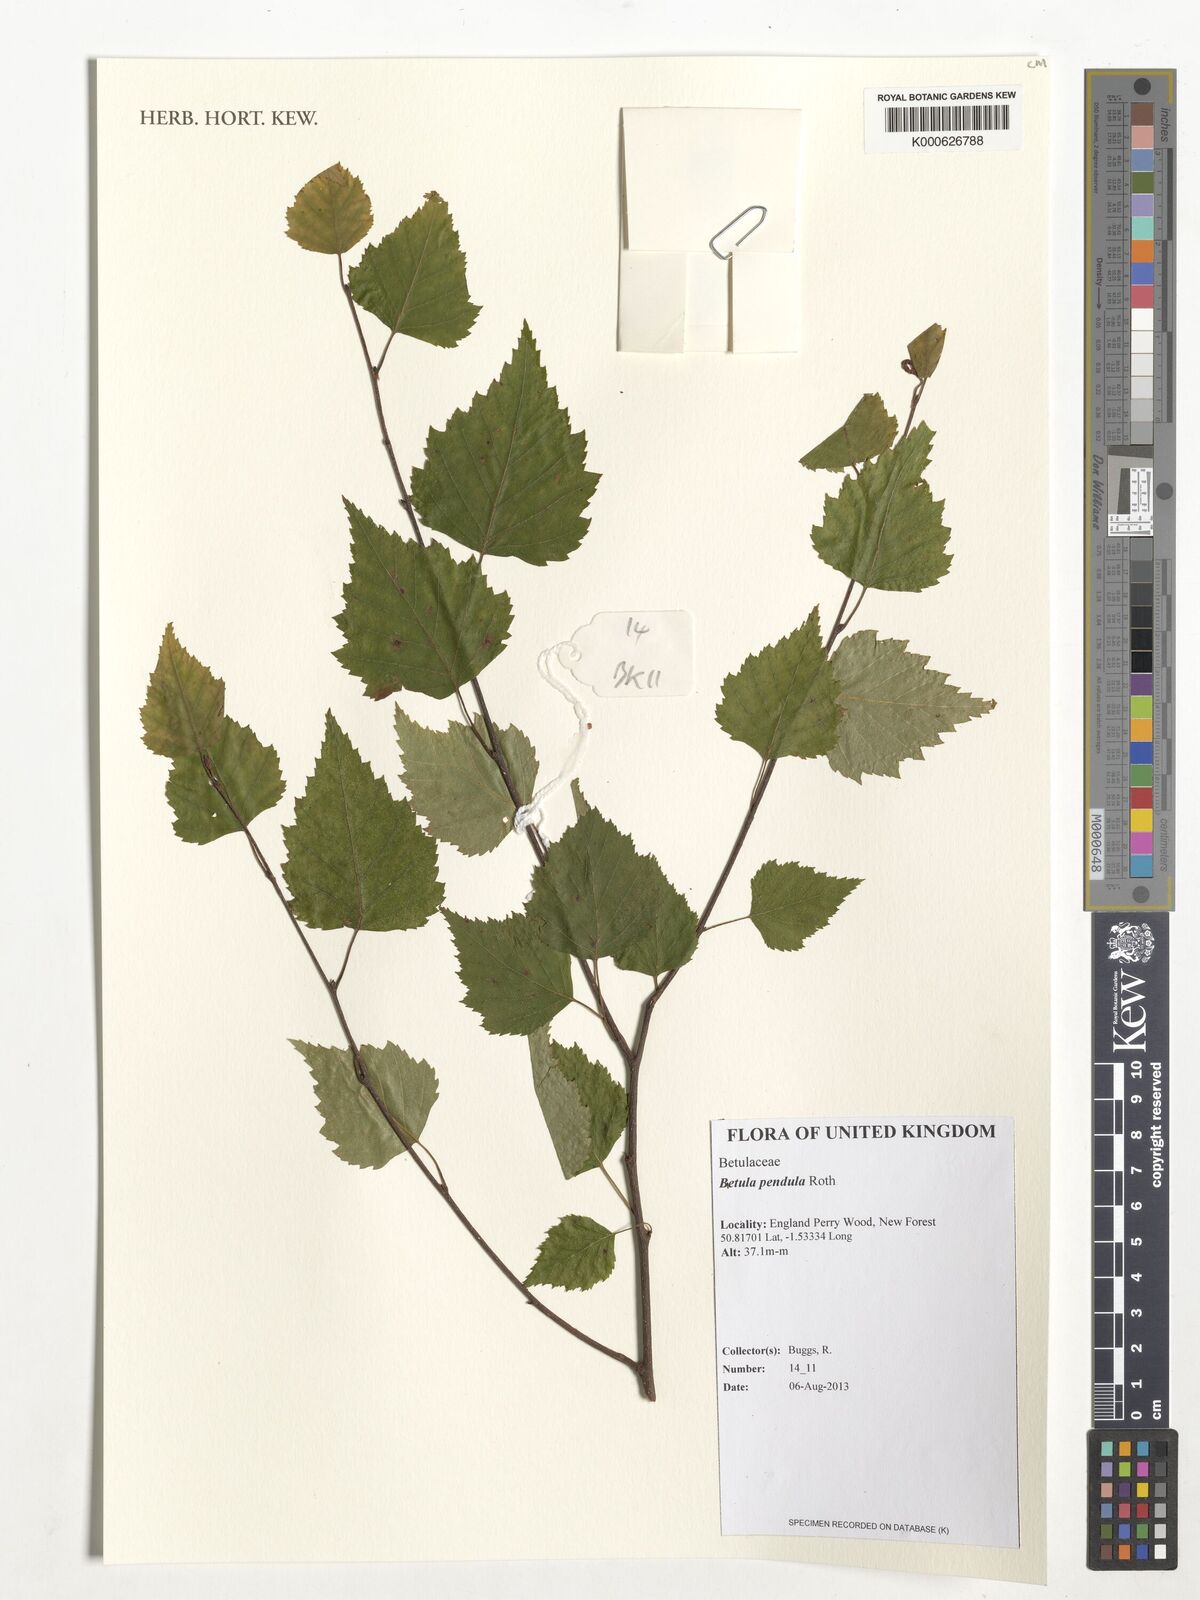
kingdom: Plantae
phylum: Tracheophyta
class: Magnoliopsida
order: Fagales
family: Betulaceae
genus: Betula
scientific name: Betula pendula
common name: Silver birch
